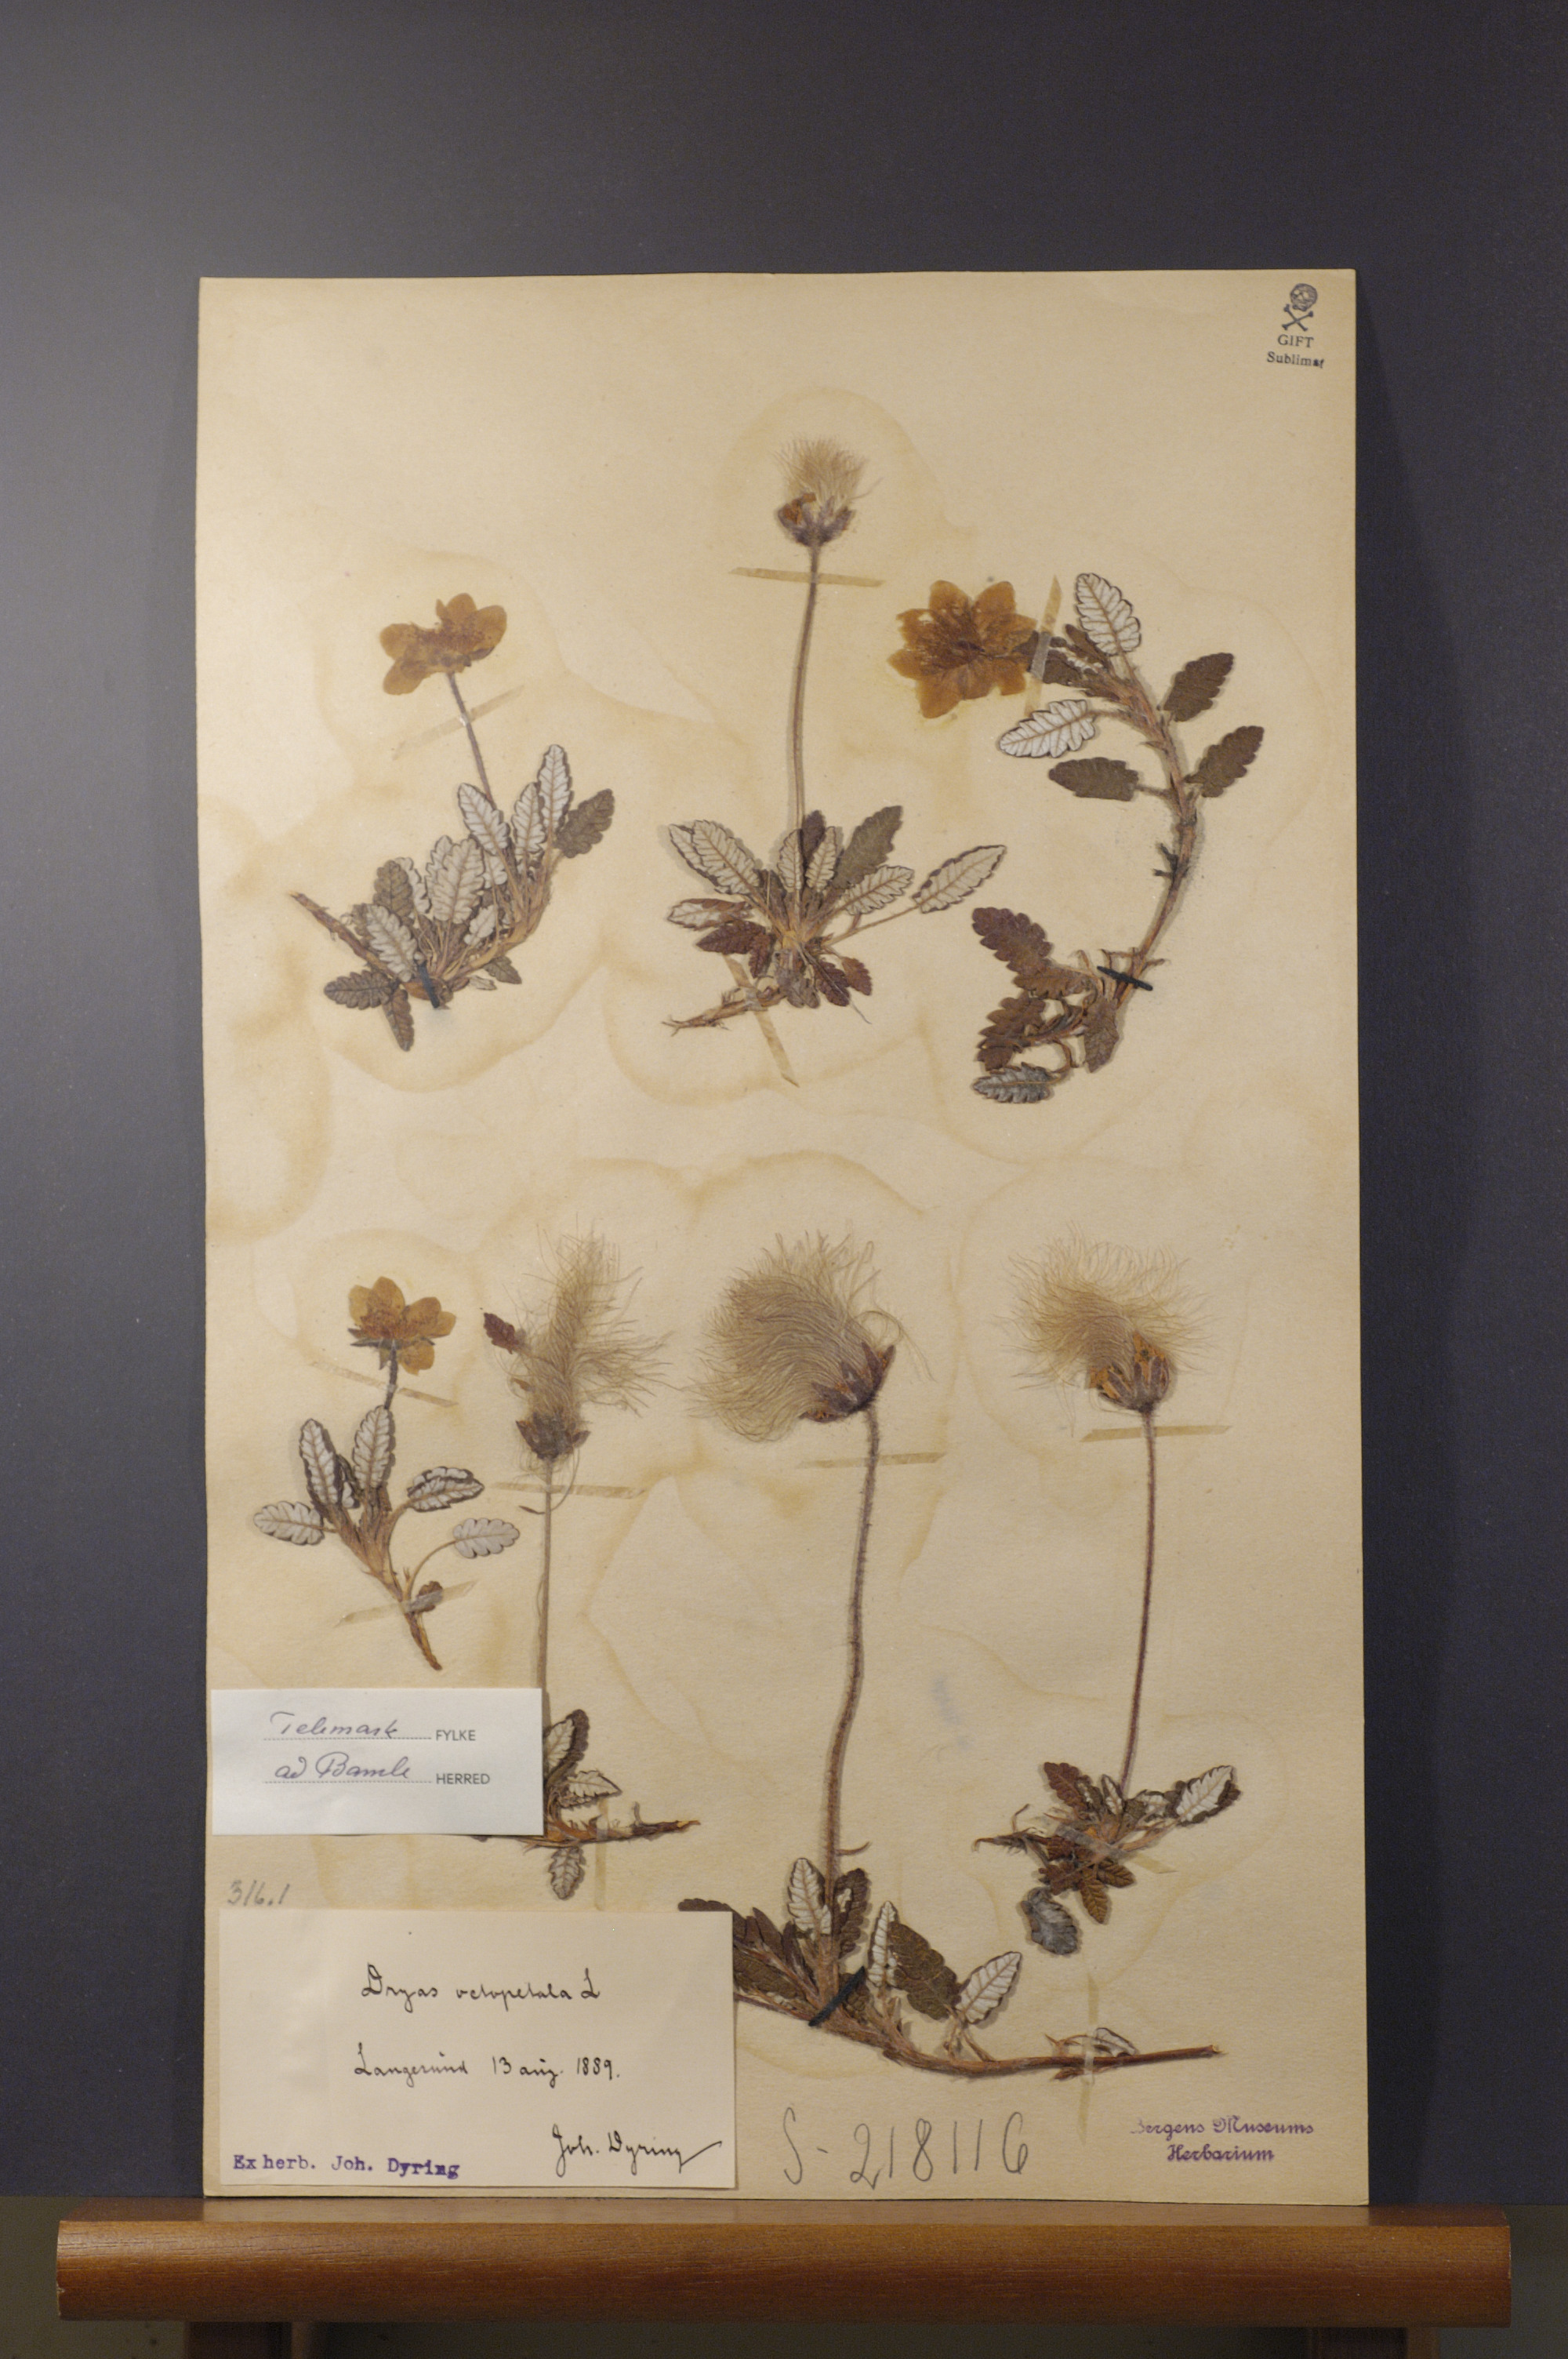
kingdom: Plantae
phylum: Tracheophyta
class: Magnoliopsida
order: Rosales
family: Rosaceae
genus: Dryas
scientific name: Dryas octopetala
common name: Eight-petal mountain-avens
